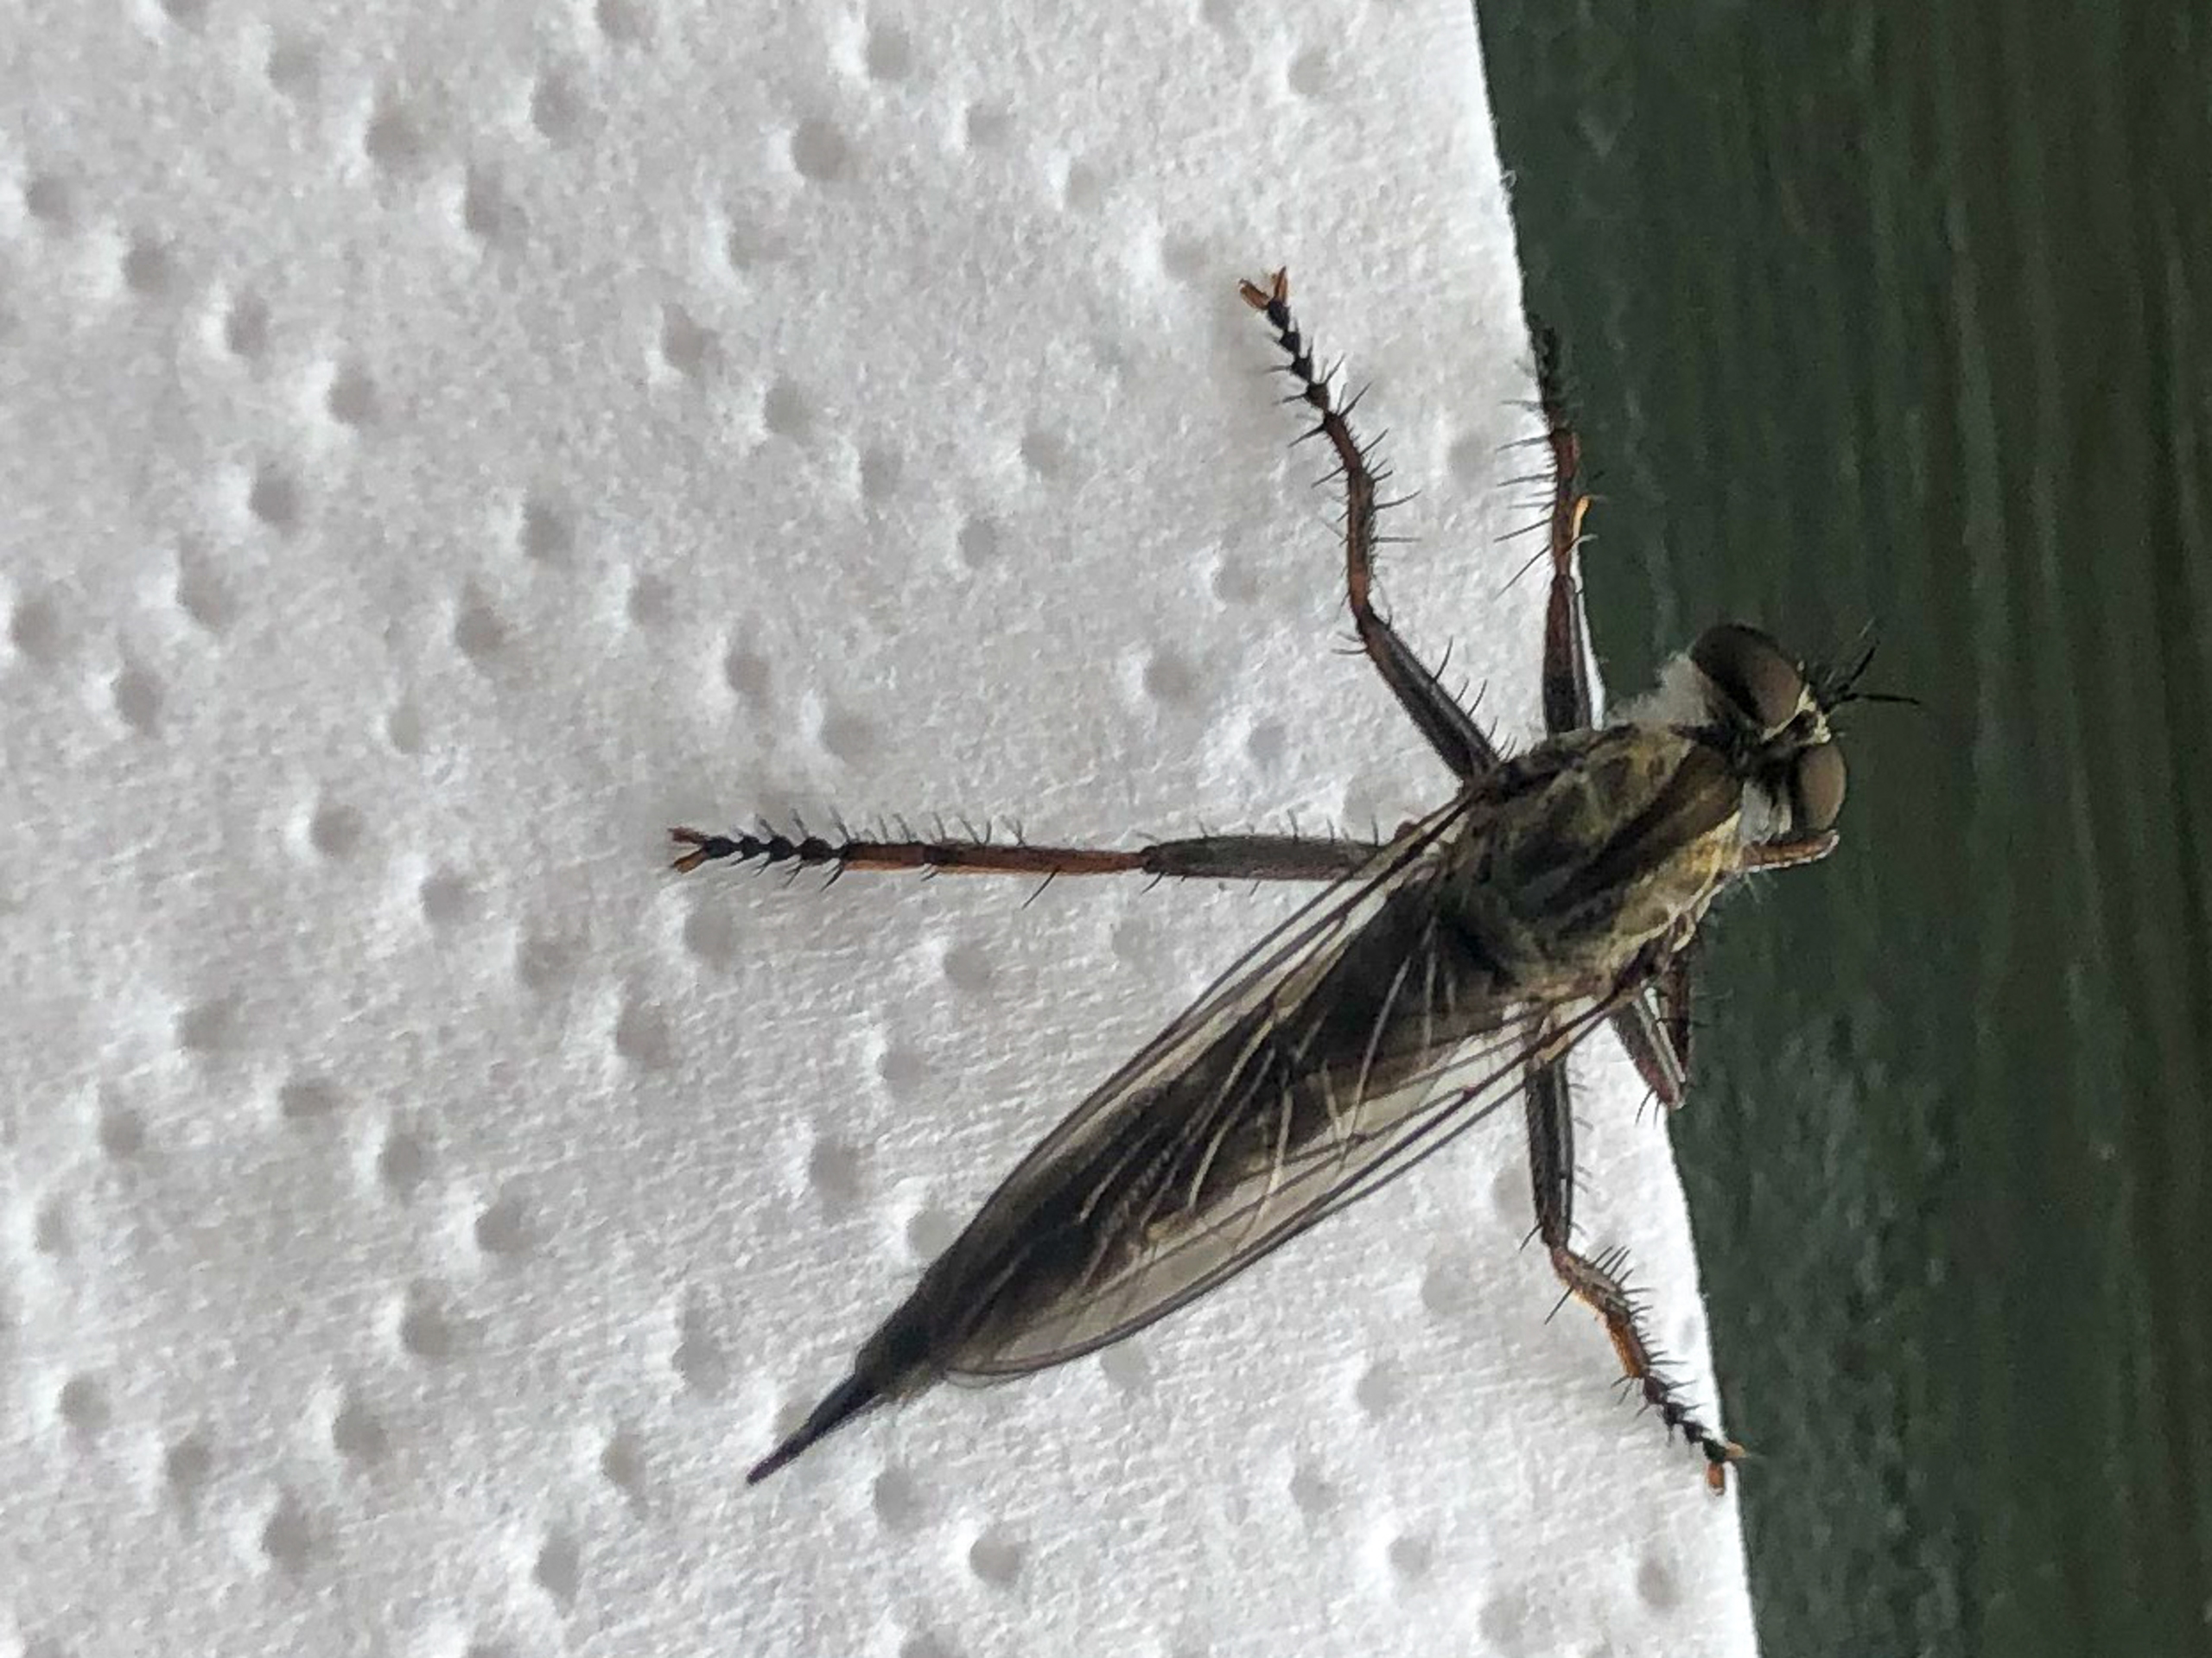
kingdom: Animalia
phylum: Arthropoda
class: Insecta
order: Diptera
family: Asilidae
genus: Machimus
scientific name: Machimus atricapillus
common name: Sort hårrovflue
